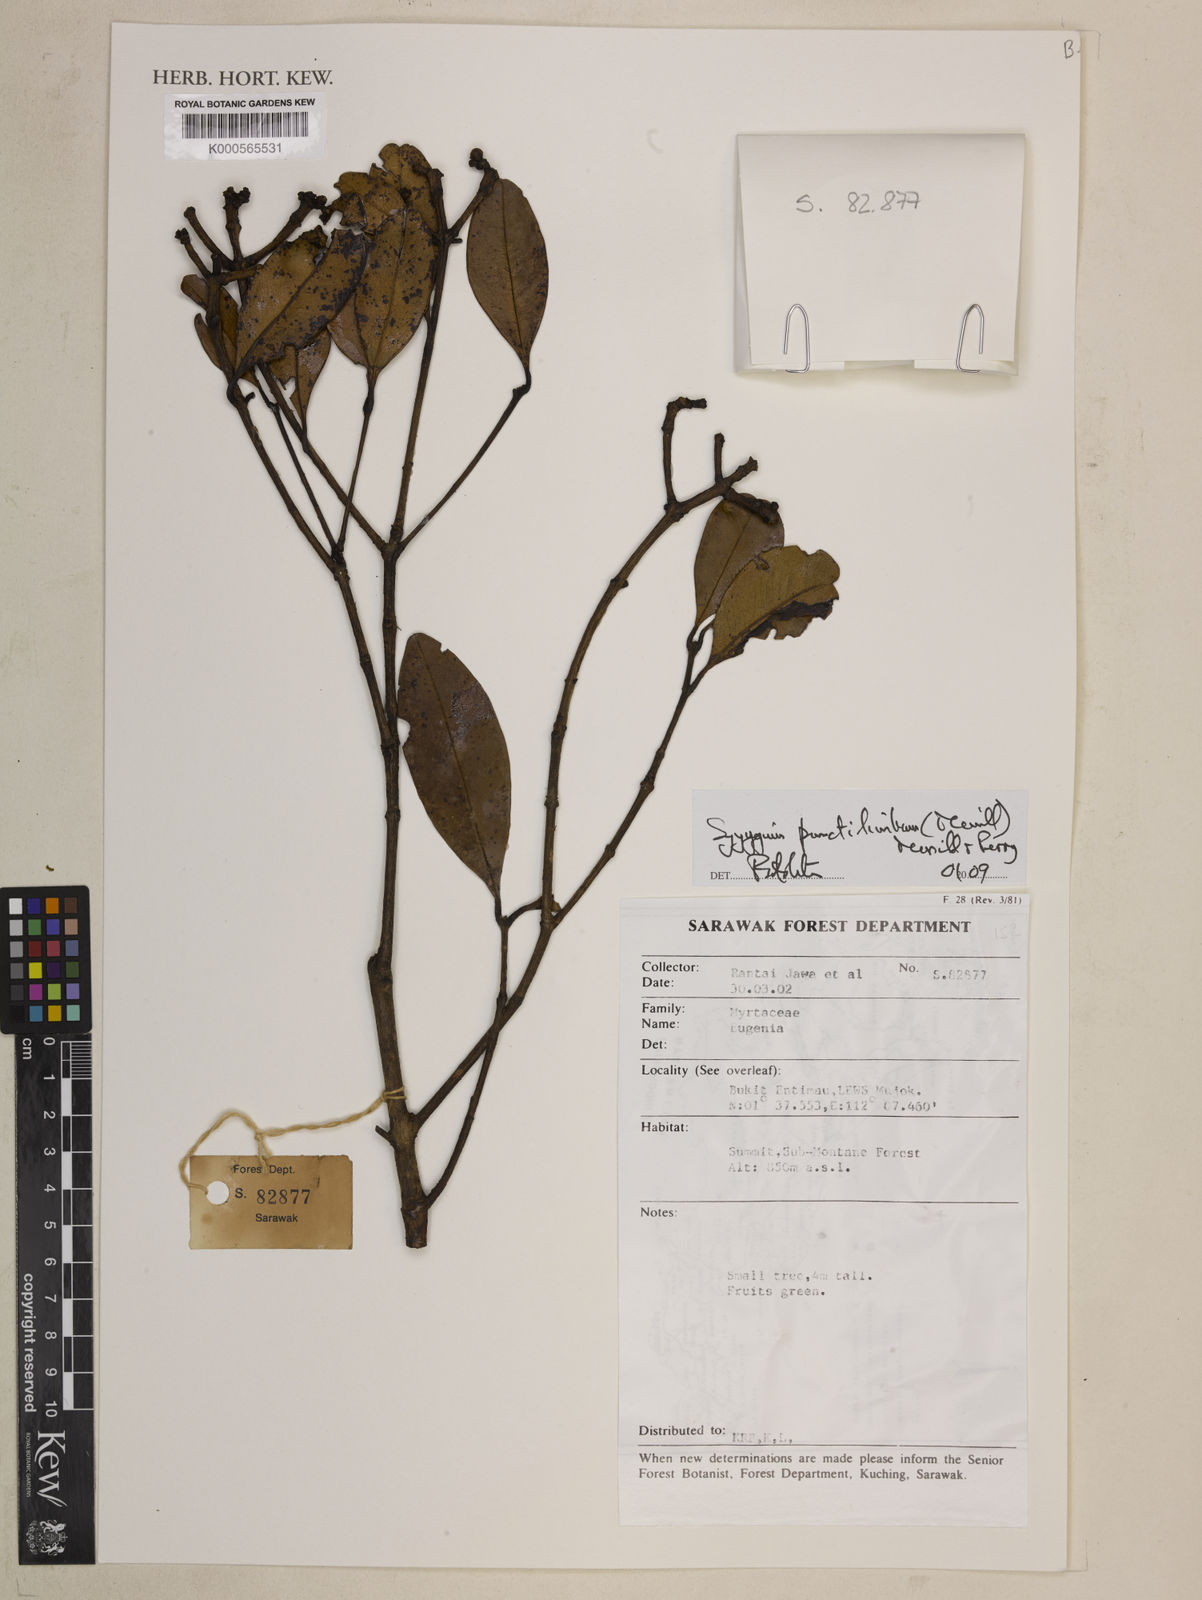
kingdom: Plantae
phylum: Tracheophyta
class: Magnoliopsida
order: Myrtales
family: Myrtaceae
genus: Syzygium
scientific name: Syzygium punctilimbum
